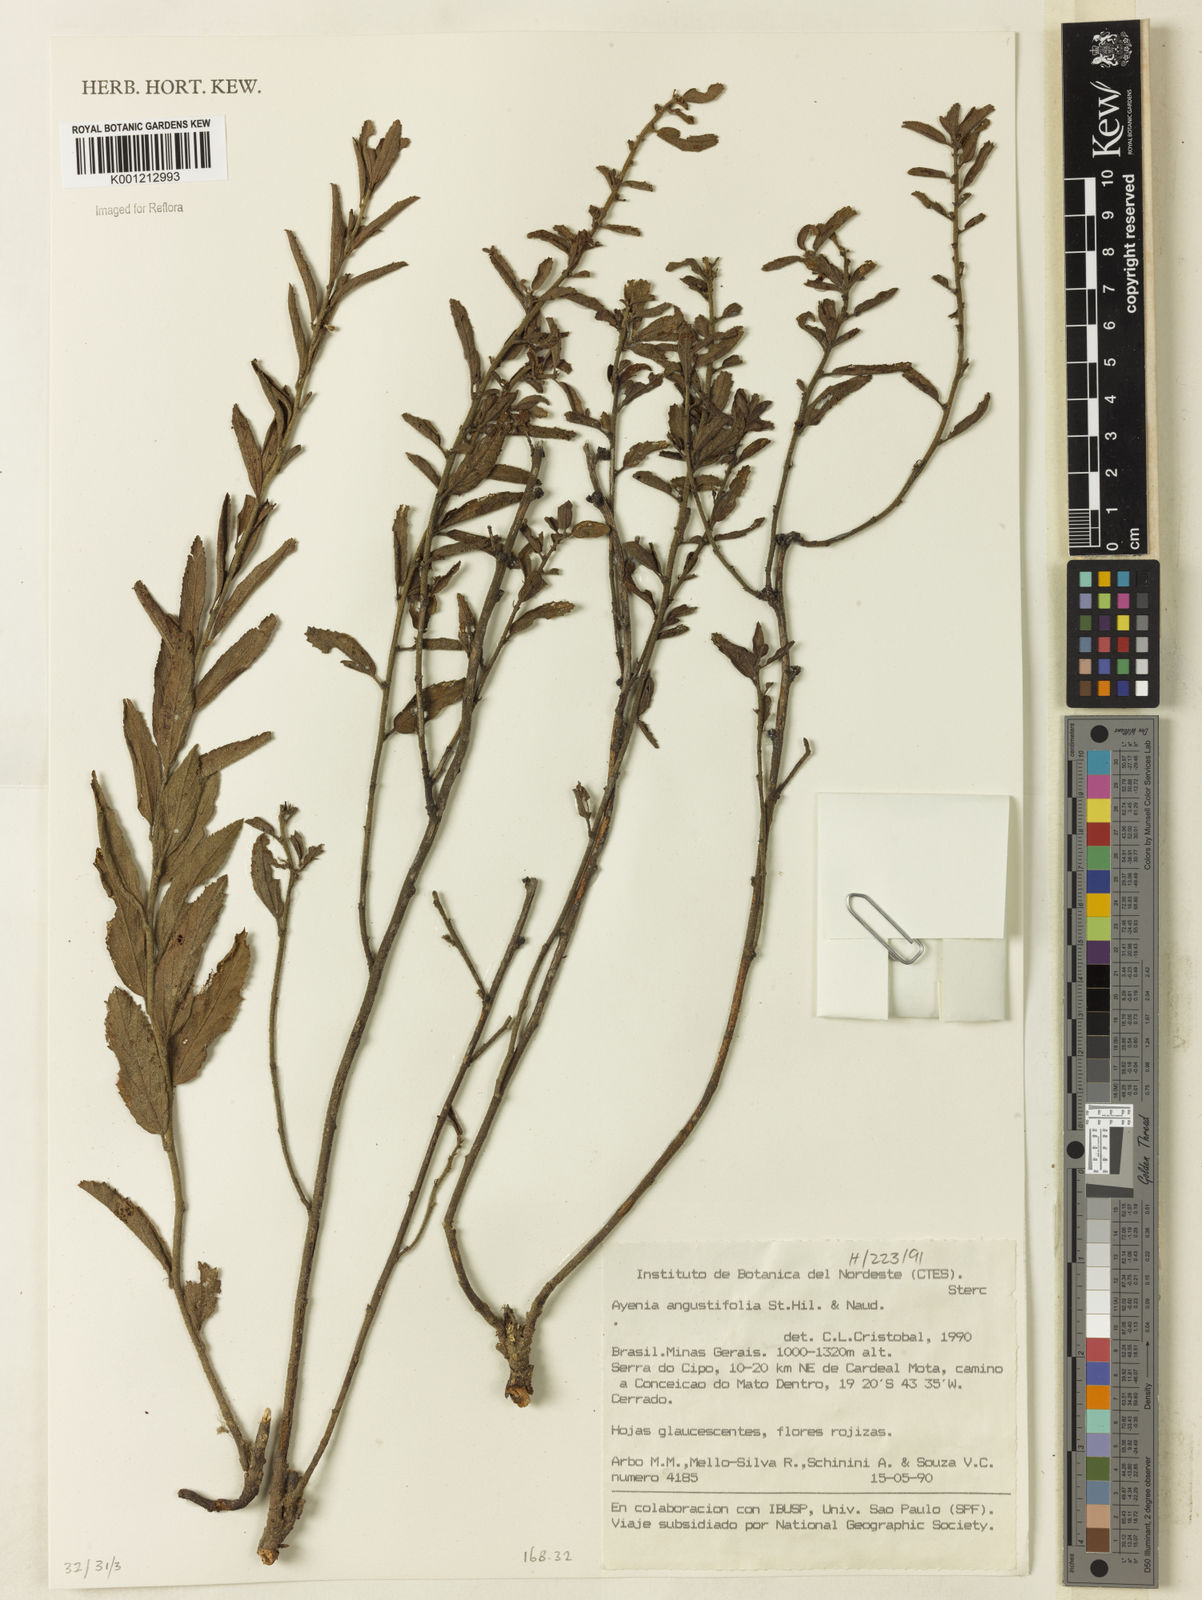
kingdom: Plantae
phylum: Tracheophyta
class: Magnoliopsida
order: Malvales
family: Malvaceae
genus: Ayenia
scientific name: Ayenia angustifolia
